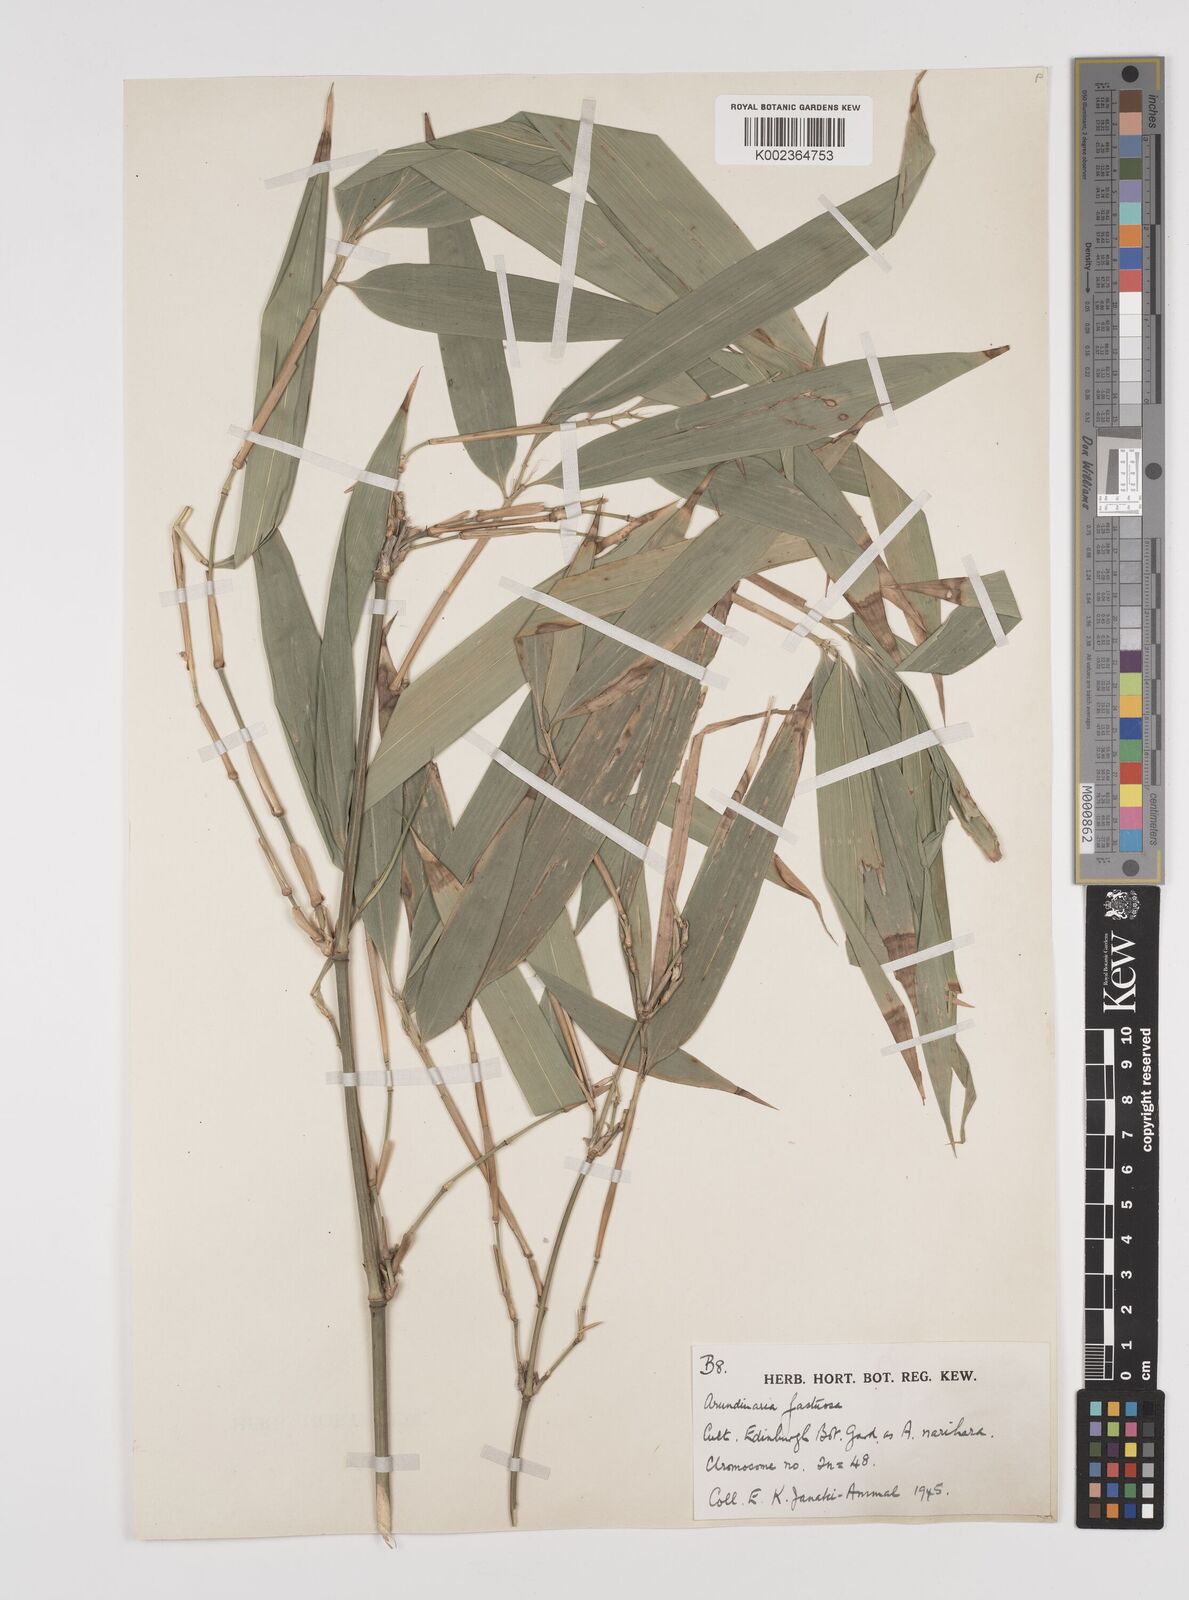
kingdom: Plantae
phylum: Tracheophyta
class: Liliopsida
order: Poales
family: Poaceae
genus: Semiarundinaria
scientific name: Semiarundinaria fastuosa
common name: Narihira bamboo
